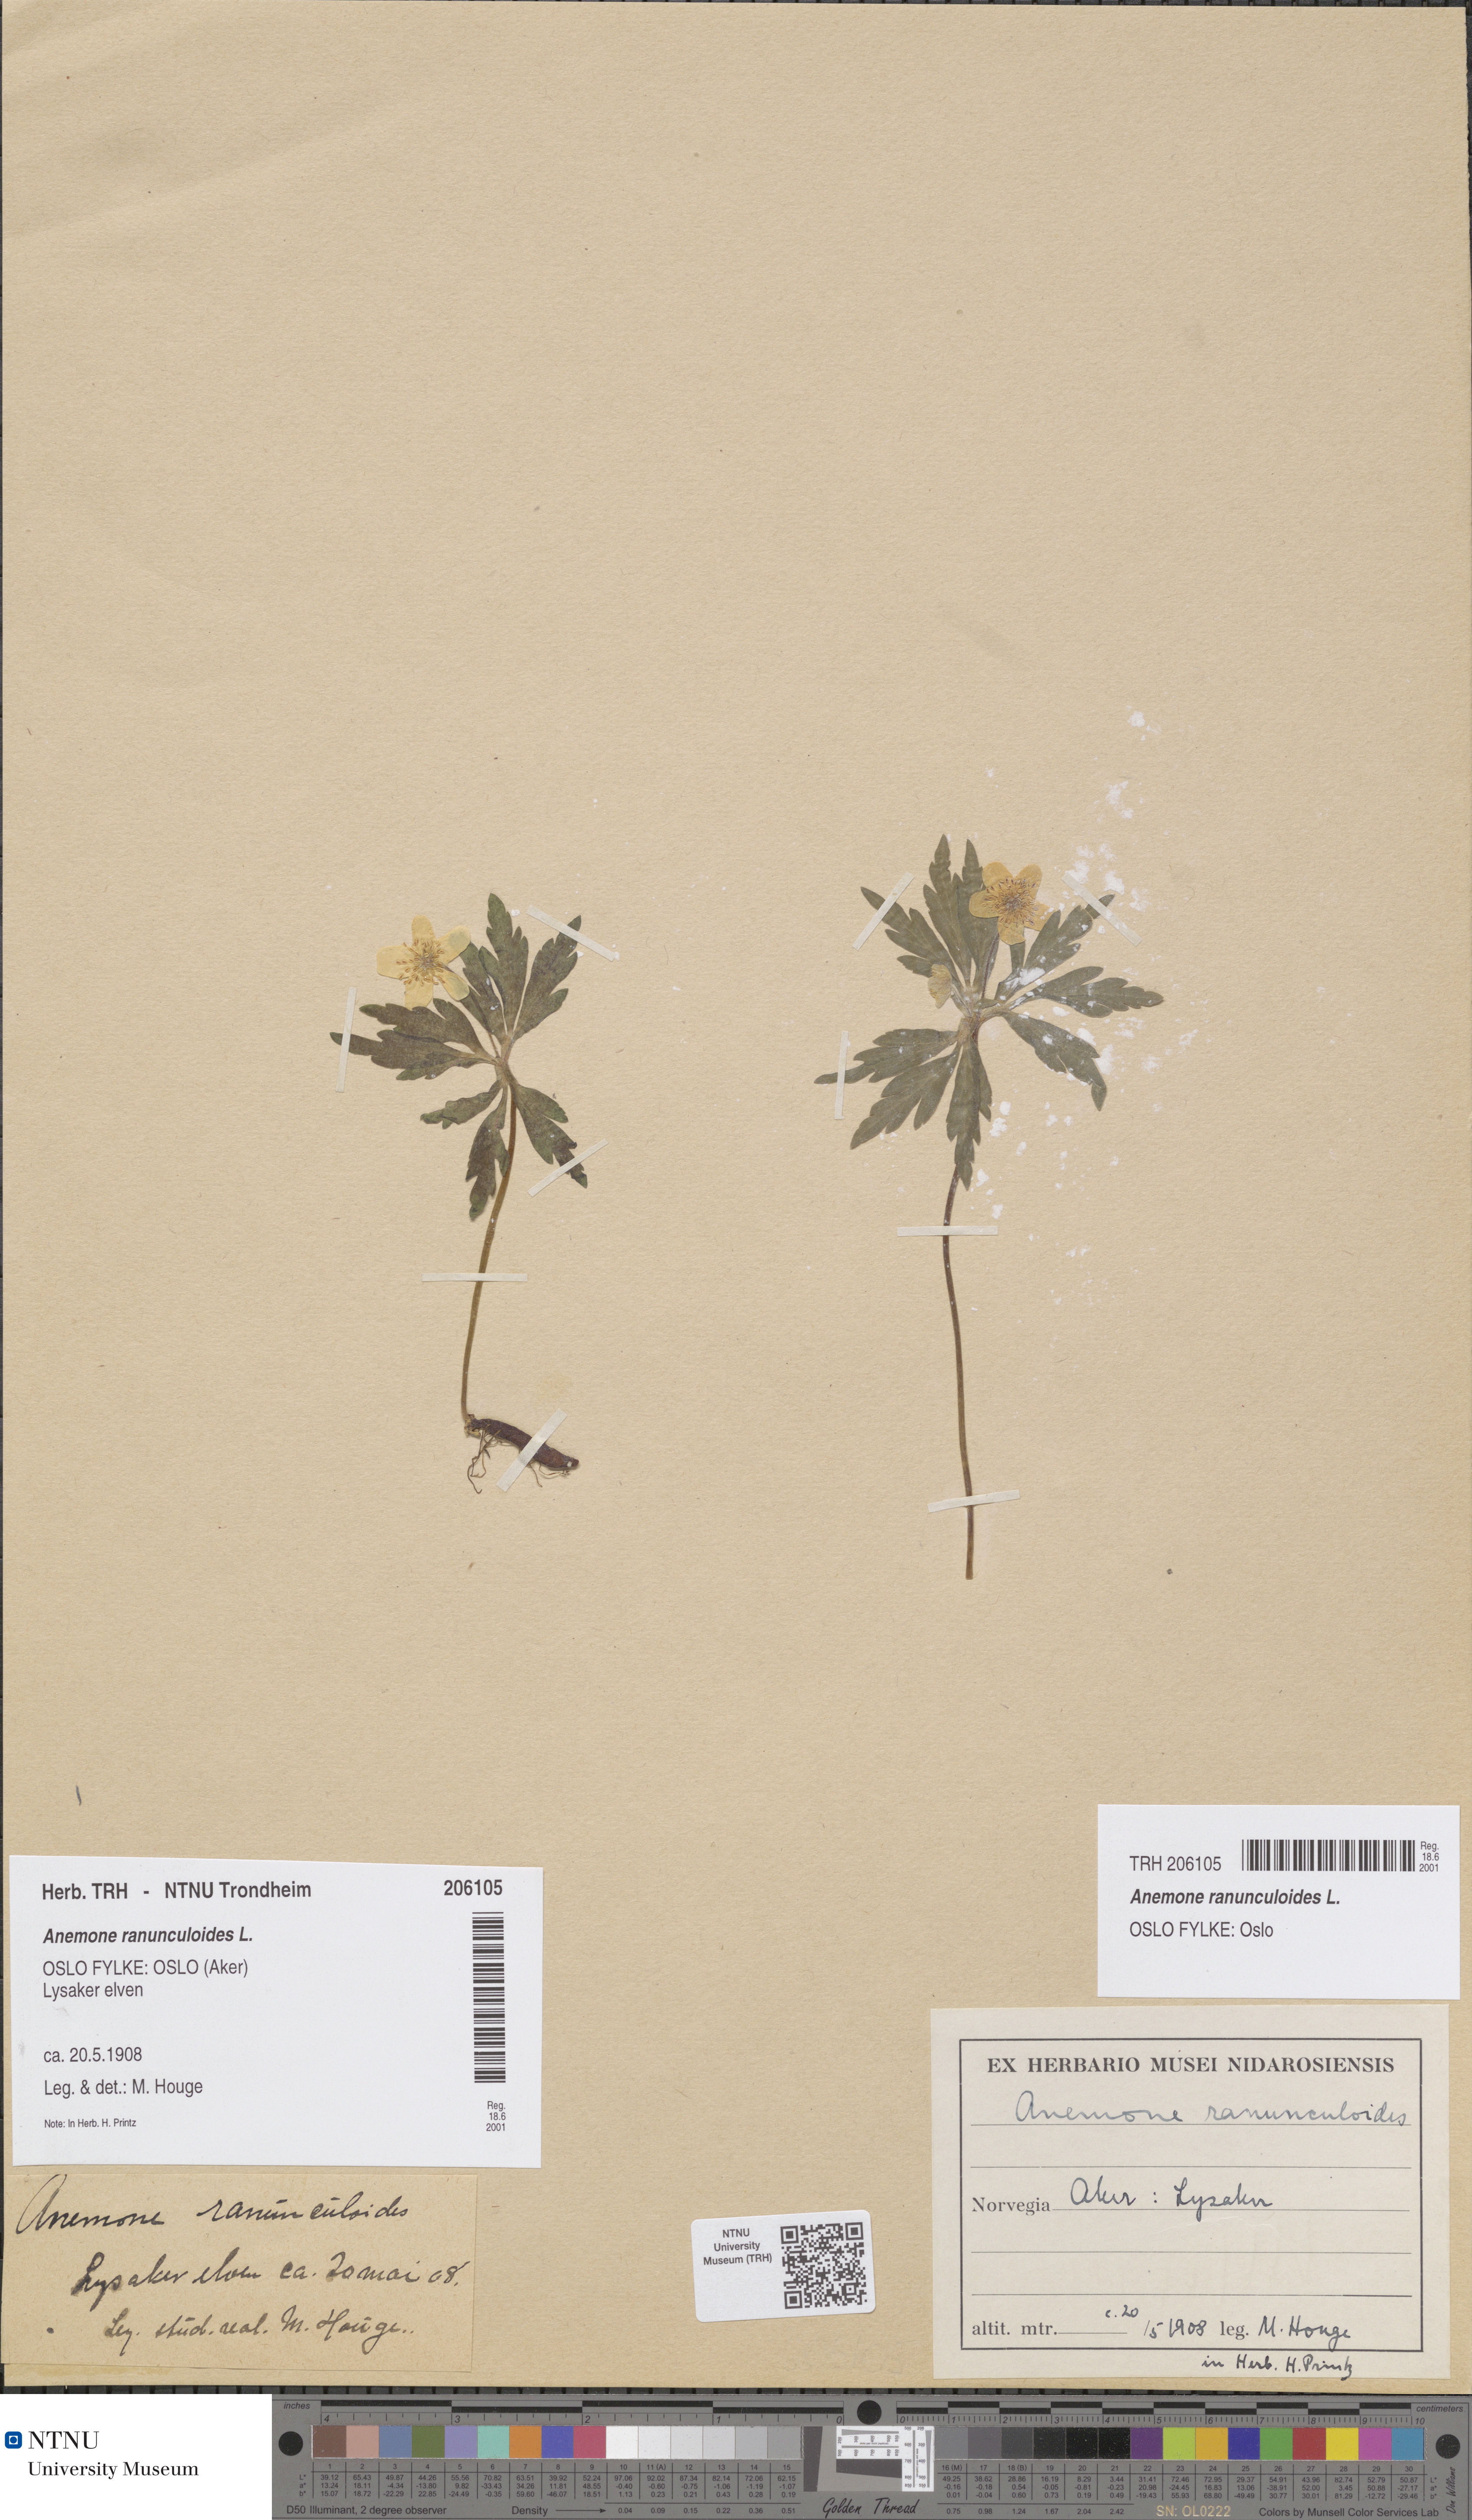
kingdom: Plantae
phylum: Tracheophyta
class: Magnoliopsida
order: Ranunculales
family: Ranunculaceae
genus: Anemone
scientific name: Anemone ranunculoides
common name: Yellow anemone
